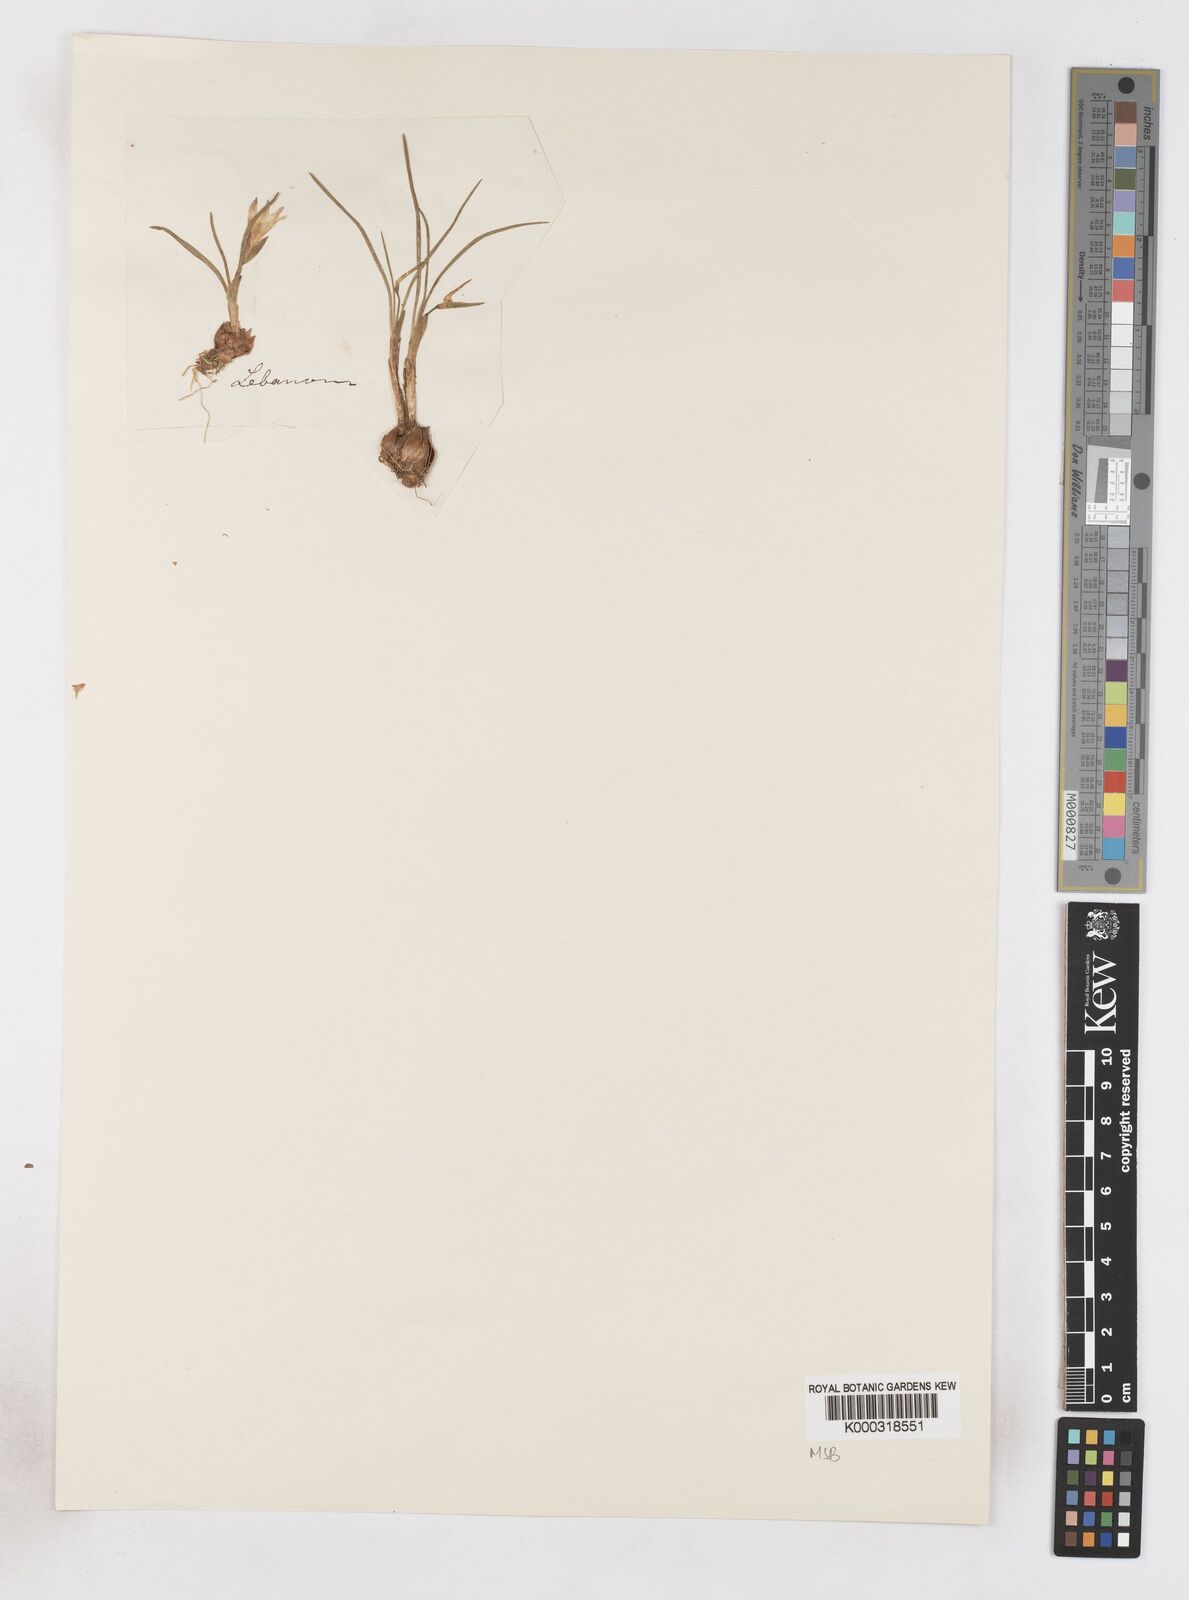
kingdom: Plantae
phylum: Tracheophyta
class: Liliopsida
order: Asparagales
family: Iridaceae
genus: Romulea
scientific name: Romulea nivalis
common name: Snow romulea
